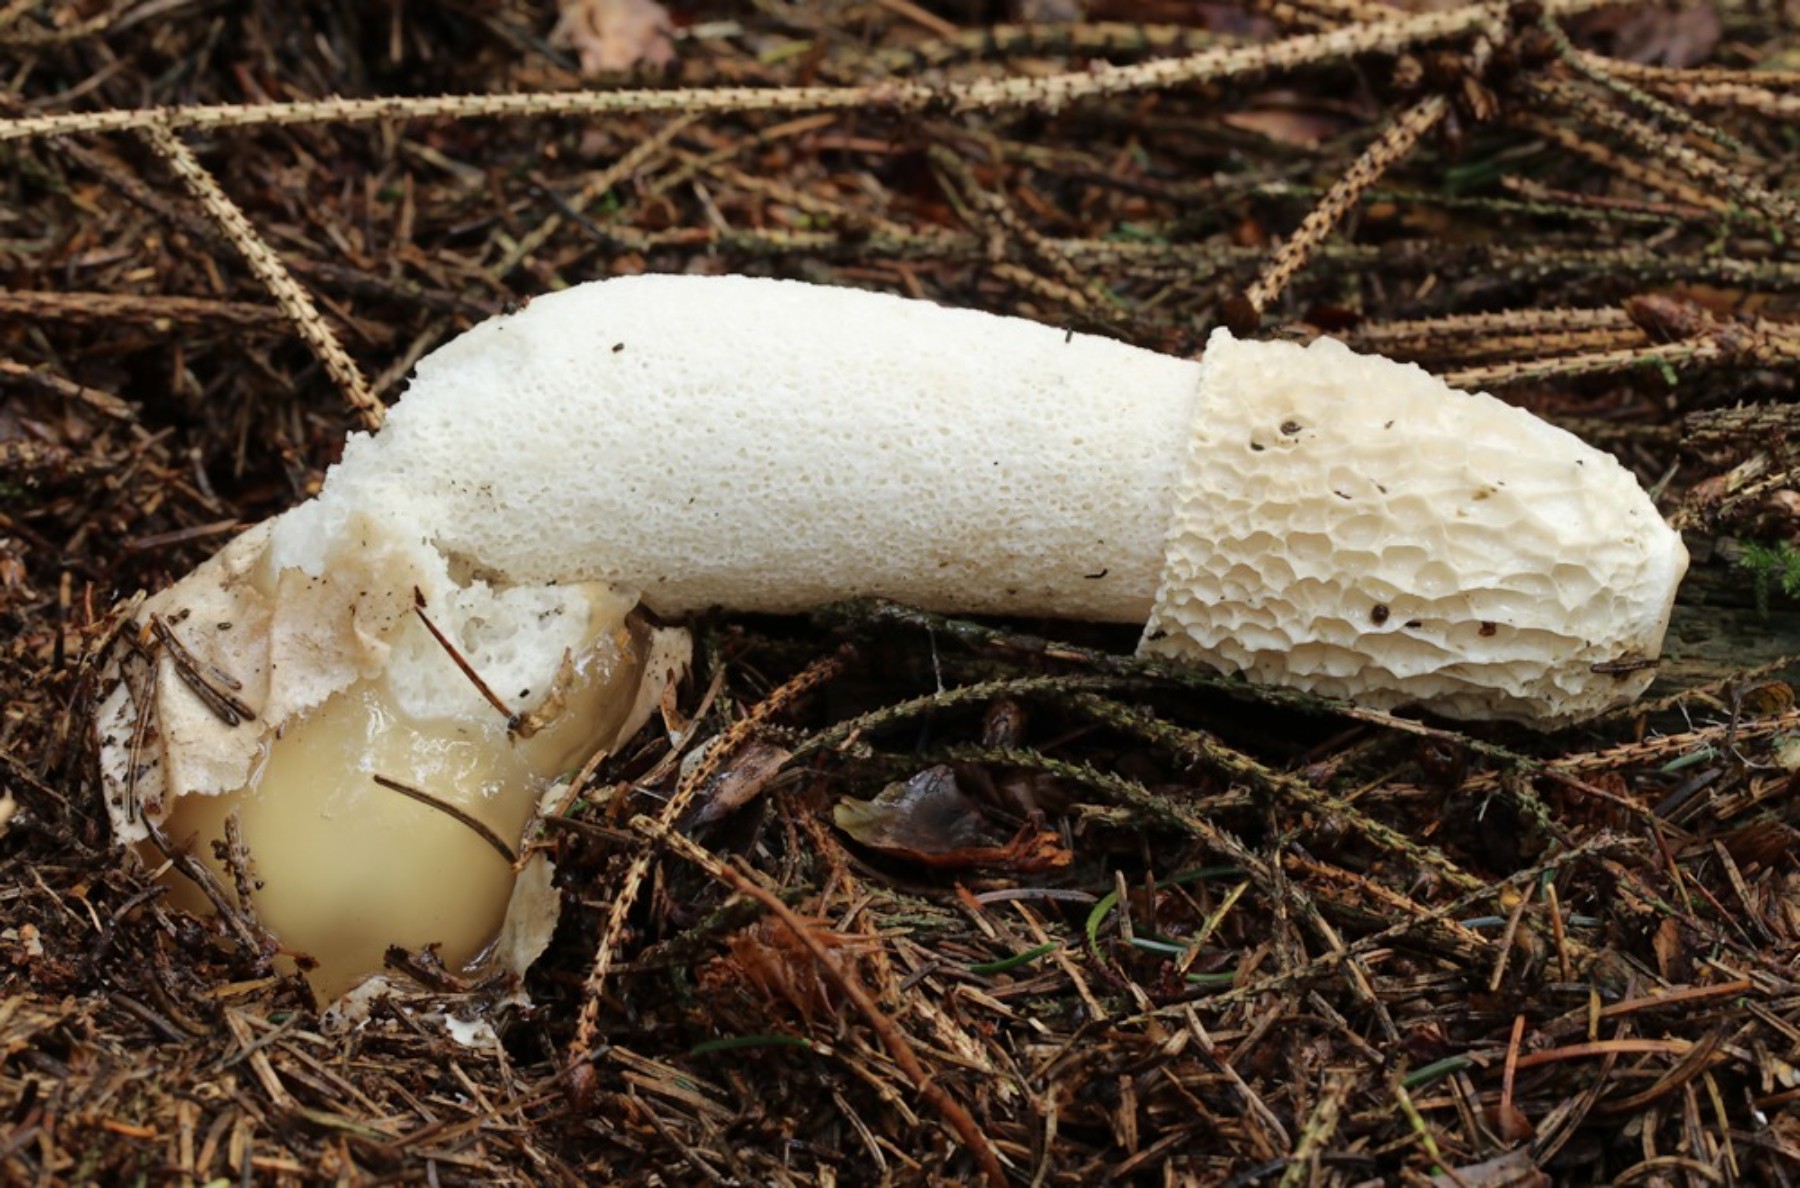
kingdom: Fungi
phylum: Basidiomycota
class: Agaricomycetes
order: Phallales
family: Phallaceae
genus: Phallus
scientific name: Phallus impudicus
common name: almindelig stinksvamp
